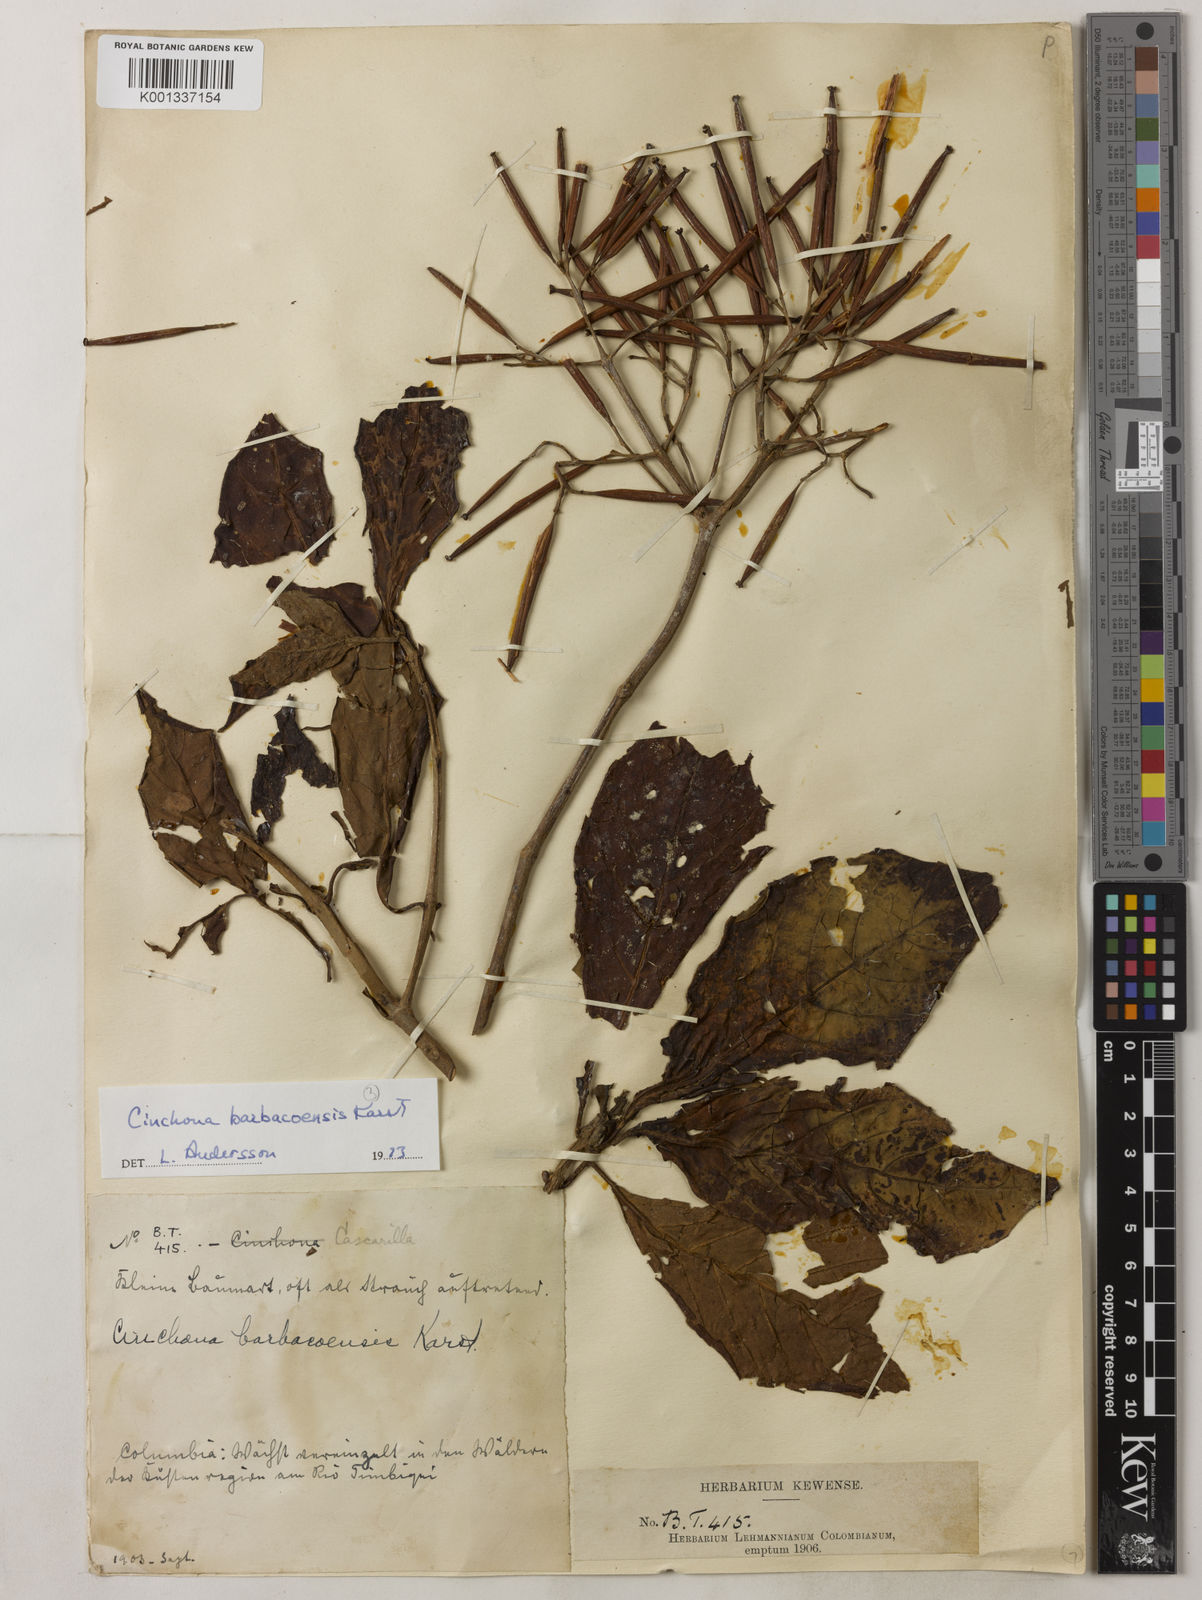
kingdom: Plantae
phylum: Tracheophyta
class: Magnoliopsida
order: Gentianales
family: Rubiaceae
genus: Cinchona
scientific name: Cinchona barbacoensis
